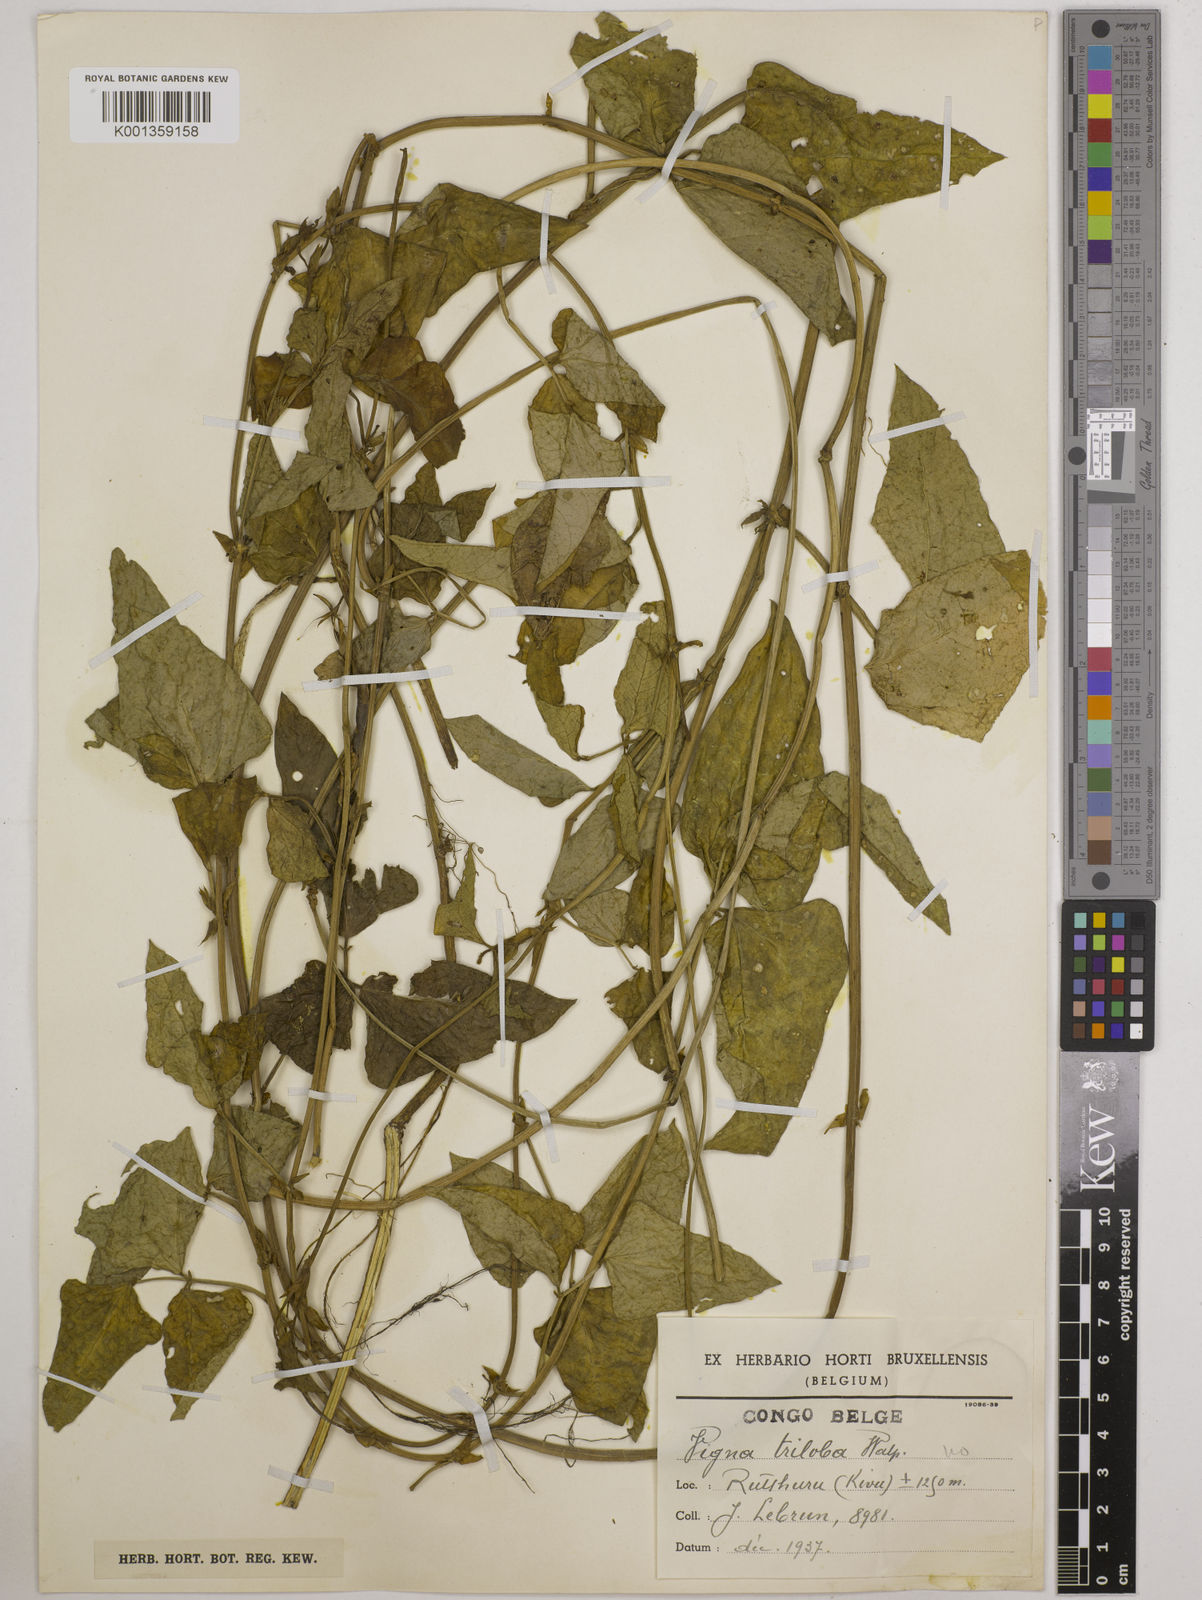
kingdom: Plantae
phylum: Tracheophyta
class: Magnoliopsida
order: Fabales
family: Fabaceae
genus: Vigna
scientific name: Vigna
